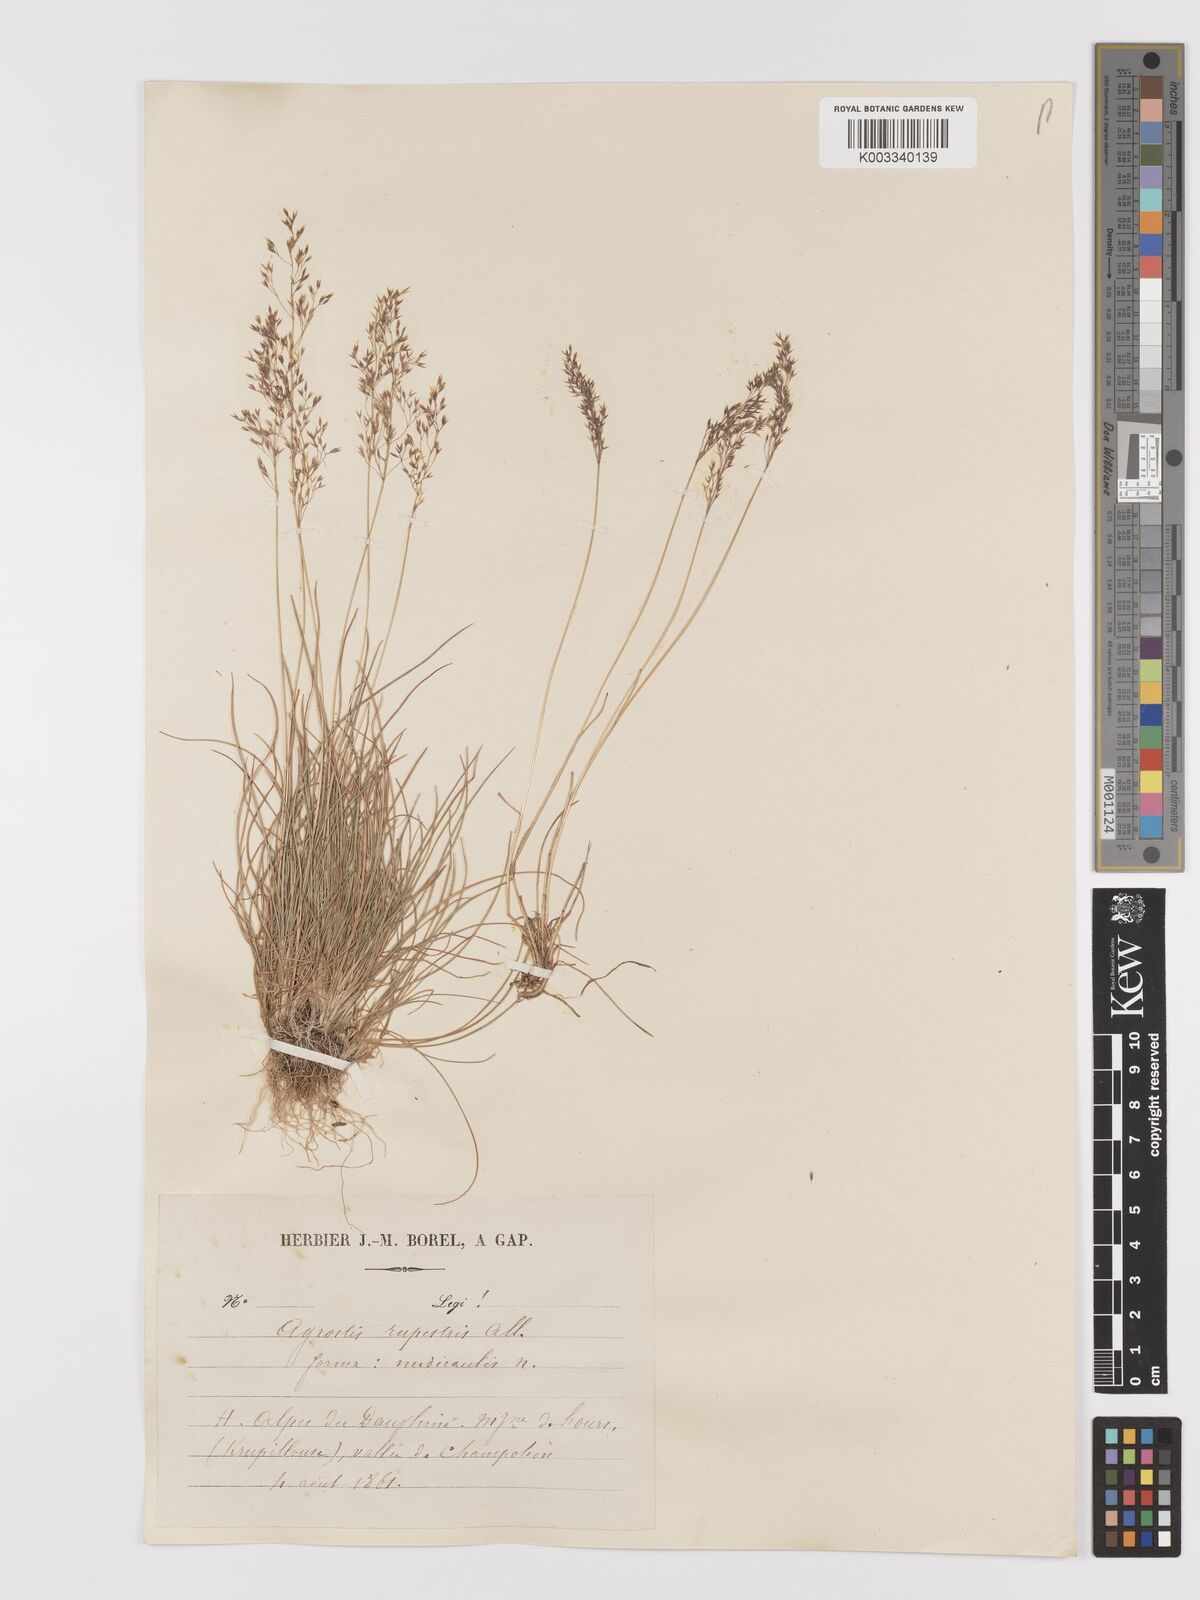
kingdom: Plantae
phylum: Tracheophyta
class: Liliopsida
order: Poales
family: Poaceae
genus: Agrostis
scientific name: Agrostis rupestris
